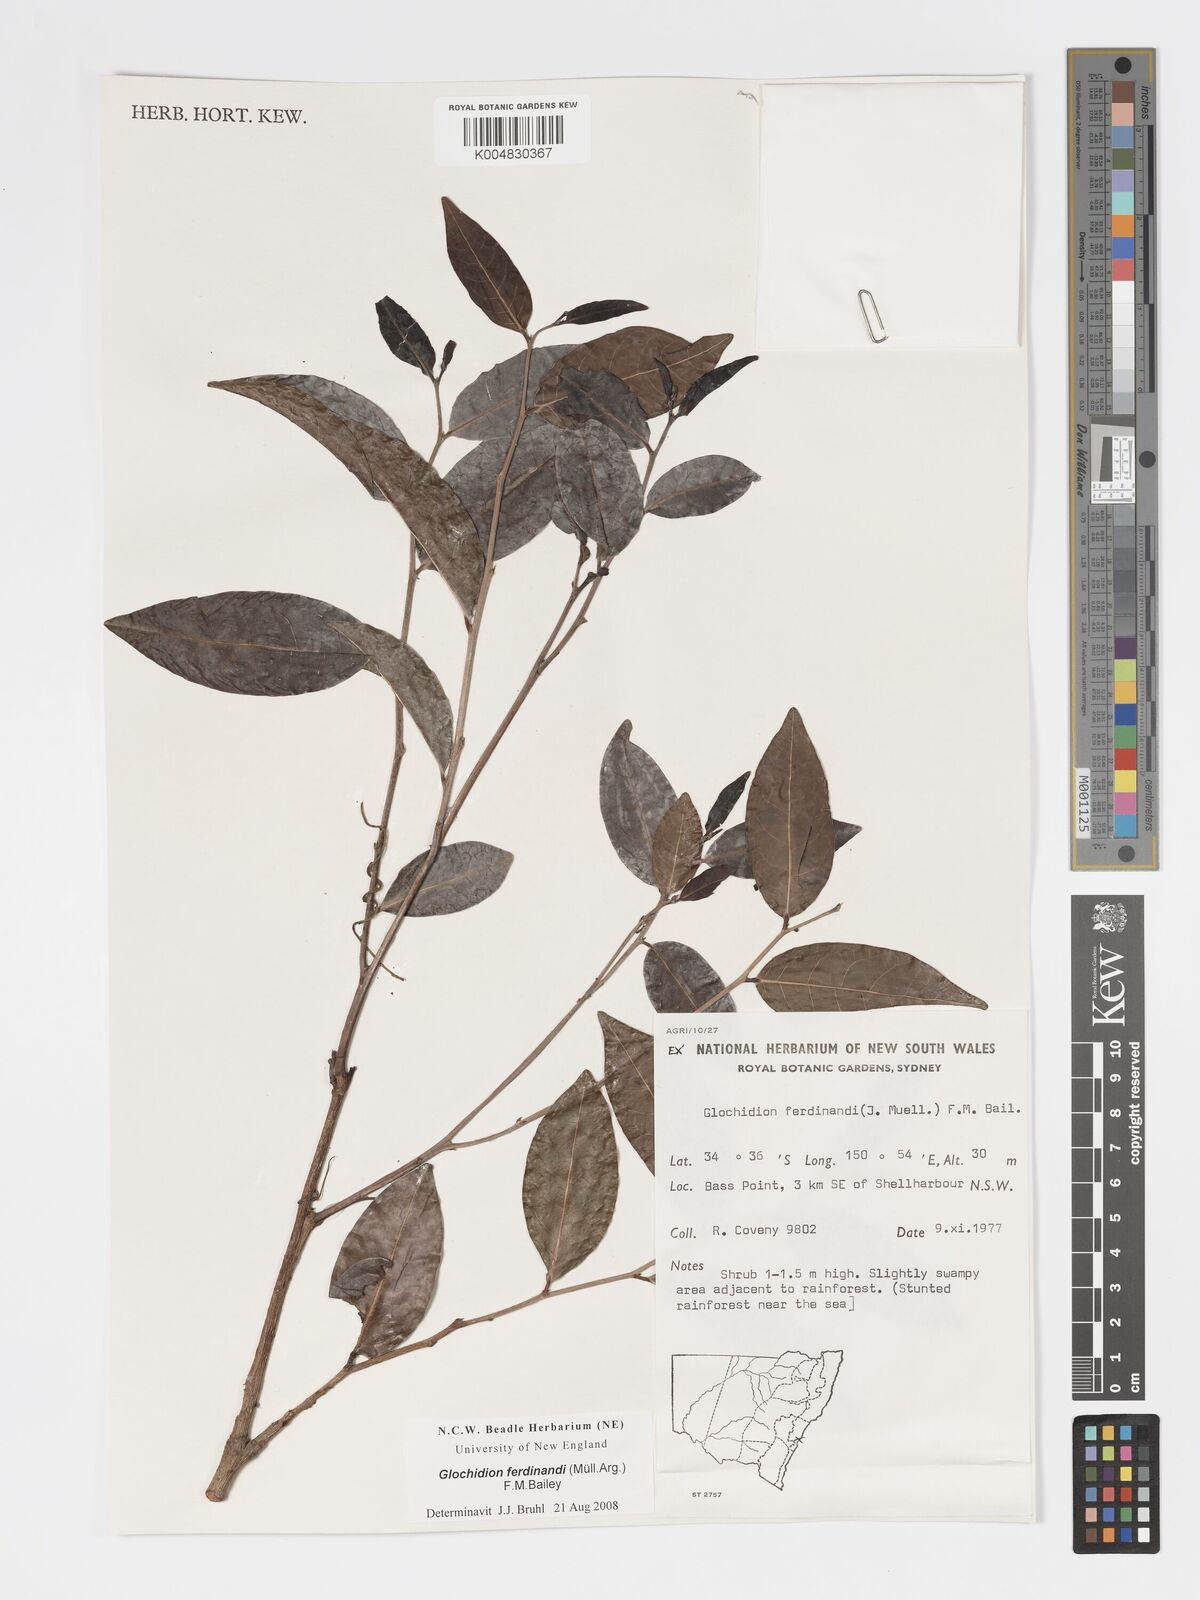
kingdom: Plantae
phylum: Tracheophyta
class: Magnoliopsida
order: Malpighiales
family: Phyllanthaceae
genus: Glochidion
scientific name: Glochidion ferdinandi
